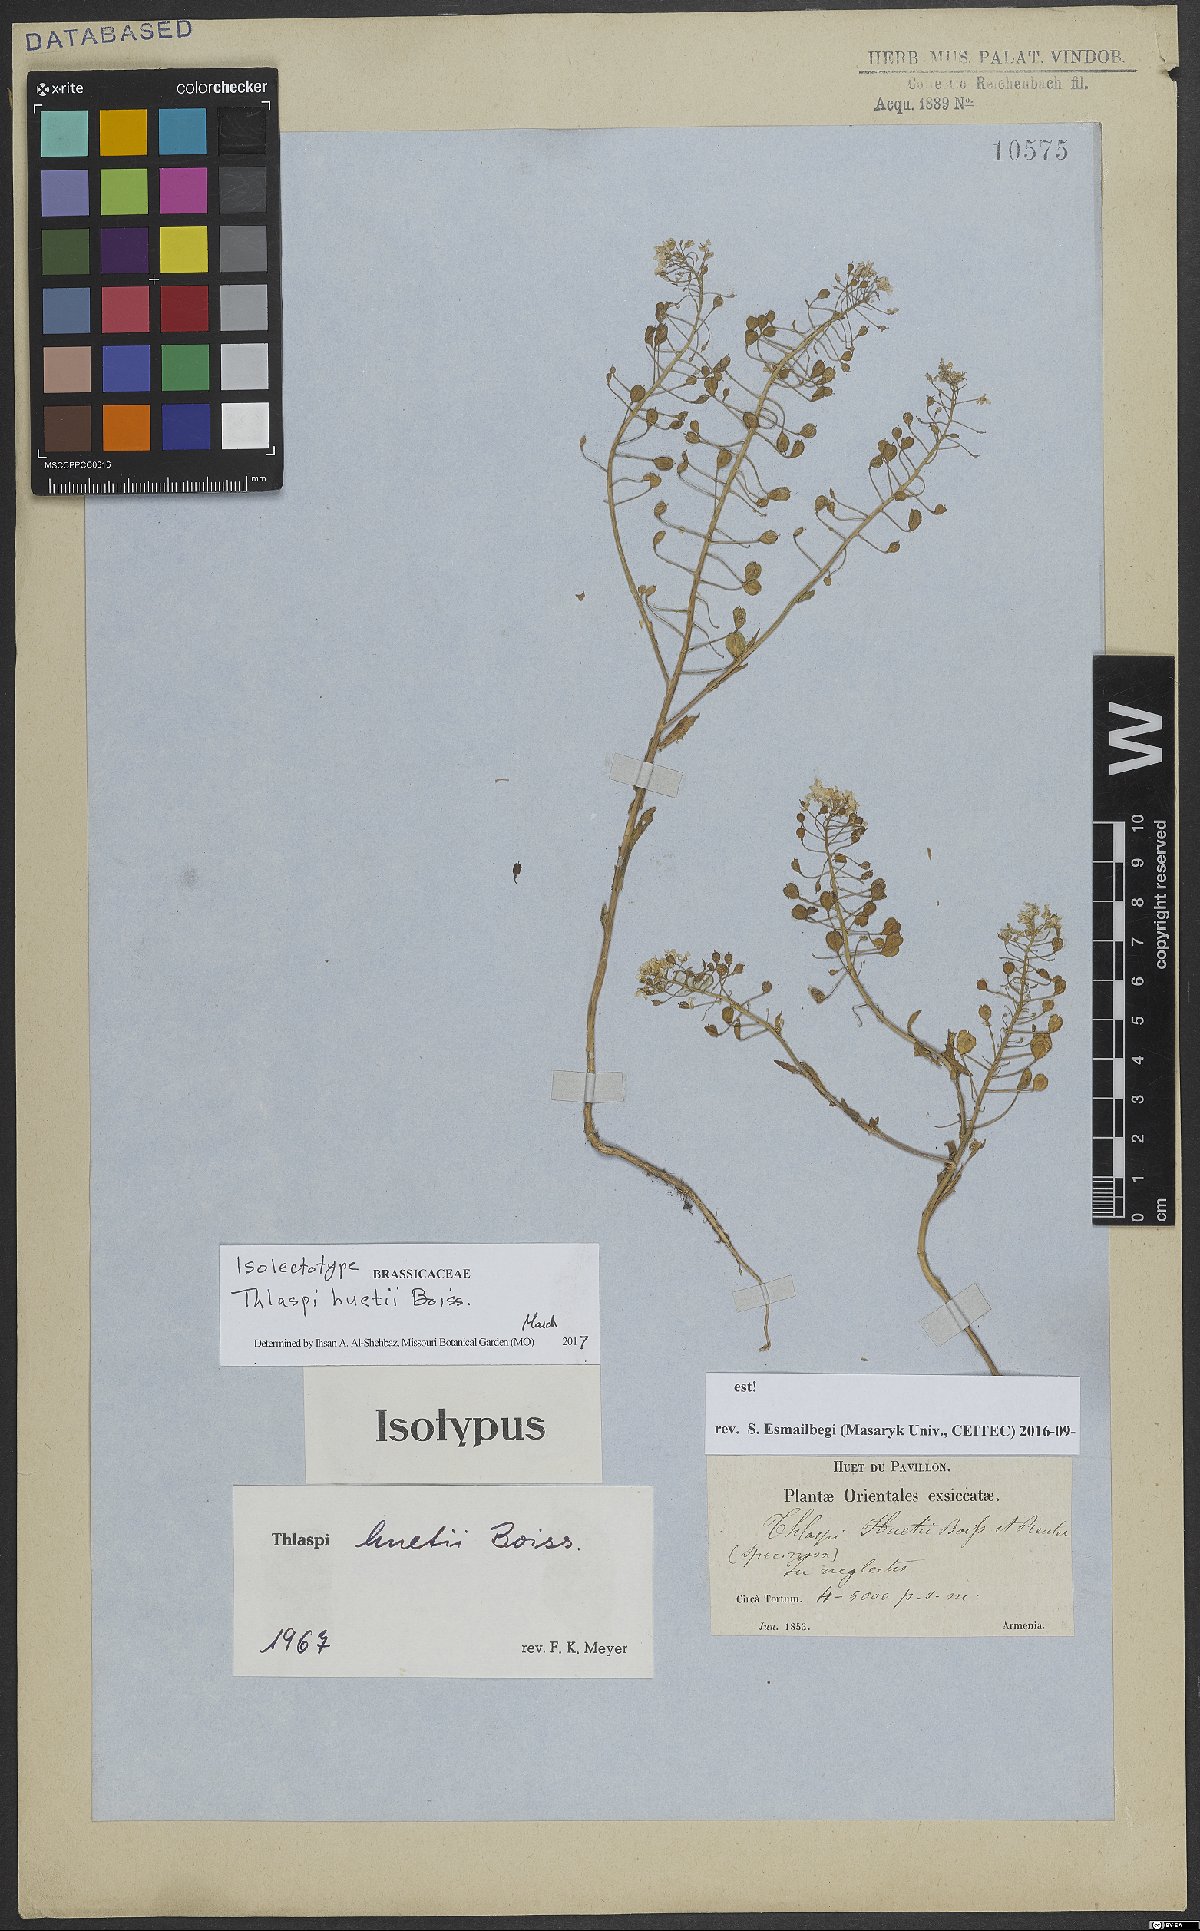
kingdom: Plantae
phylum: Tracheophyta
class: Magnoliopsida
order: Brassicales
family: Brassicaceae
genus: Thlaspi
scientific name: Thlaspi huetii
